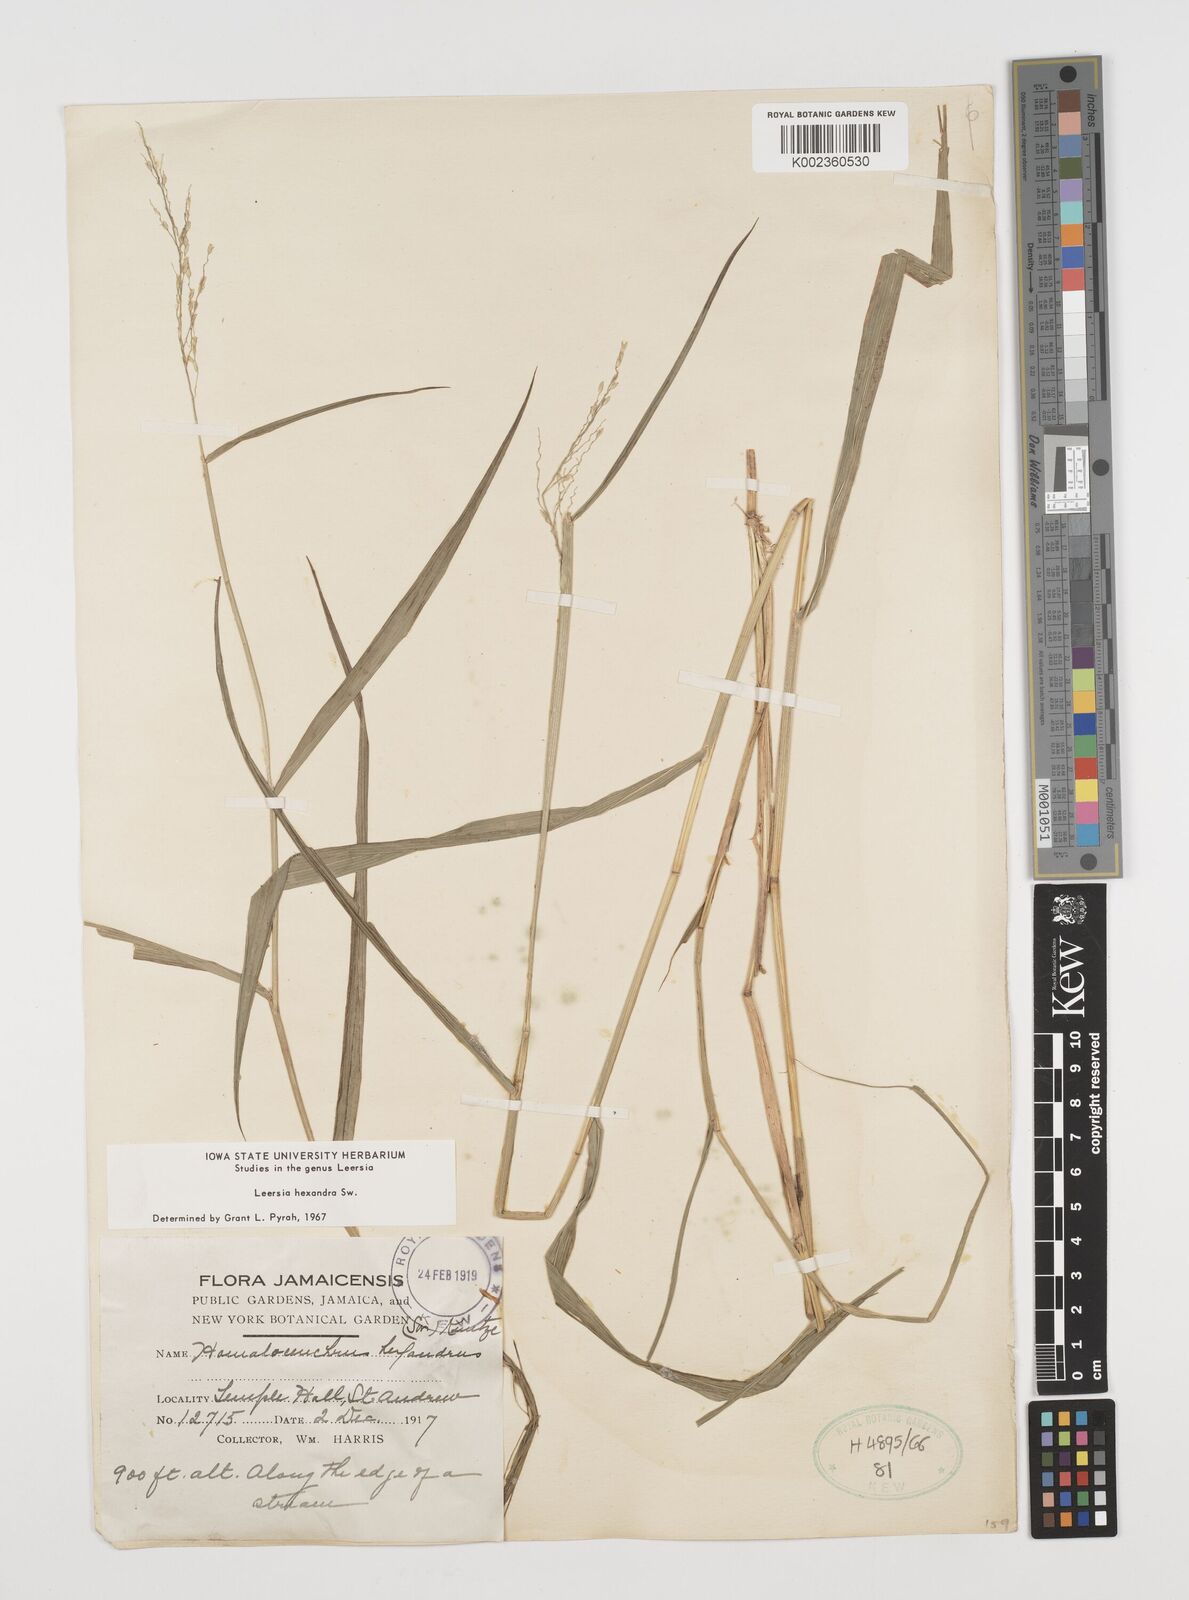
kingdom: Plantae
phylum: Tracheophyta
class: Liliopsida
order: Poales
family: Poaceae
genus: Leersia
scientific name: Leersia hexandra
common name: Southern cut grass
